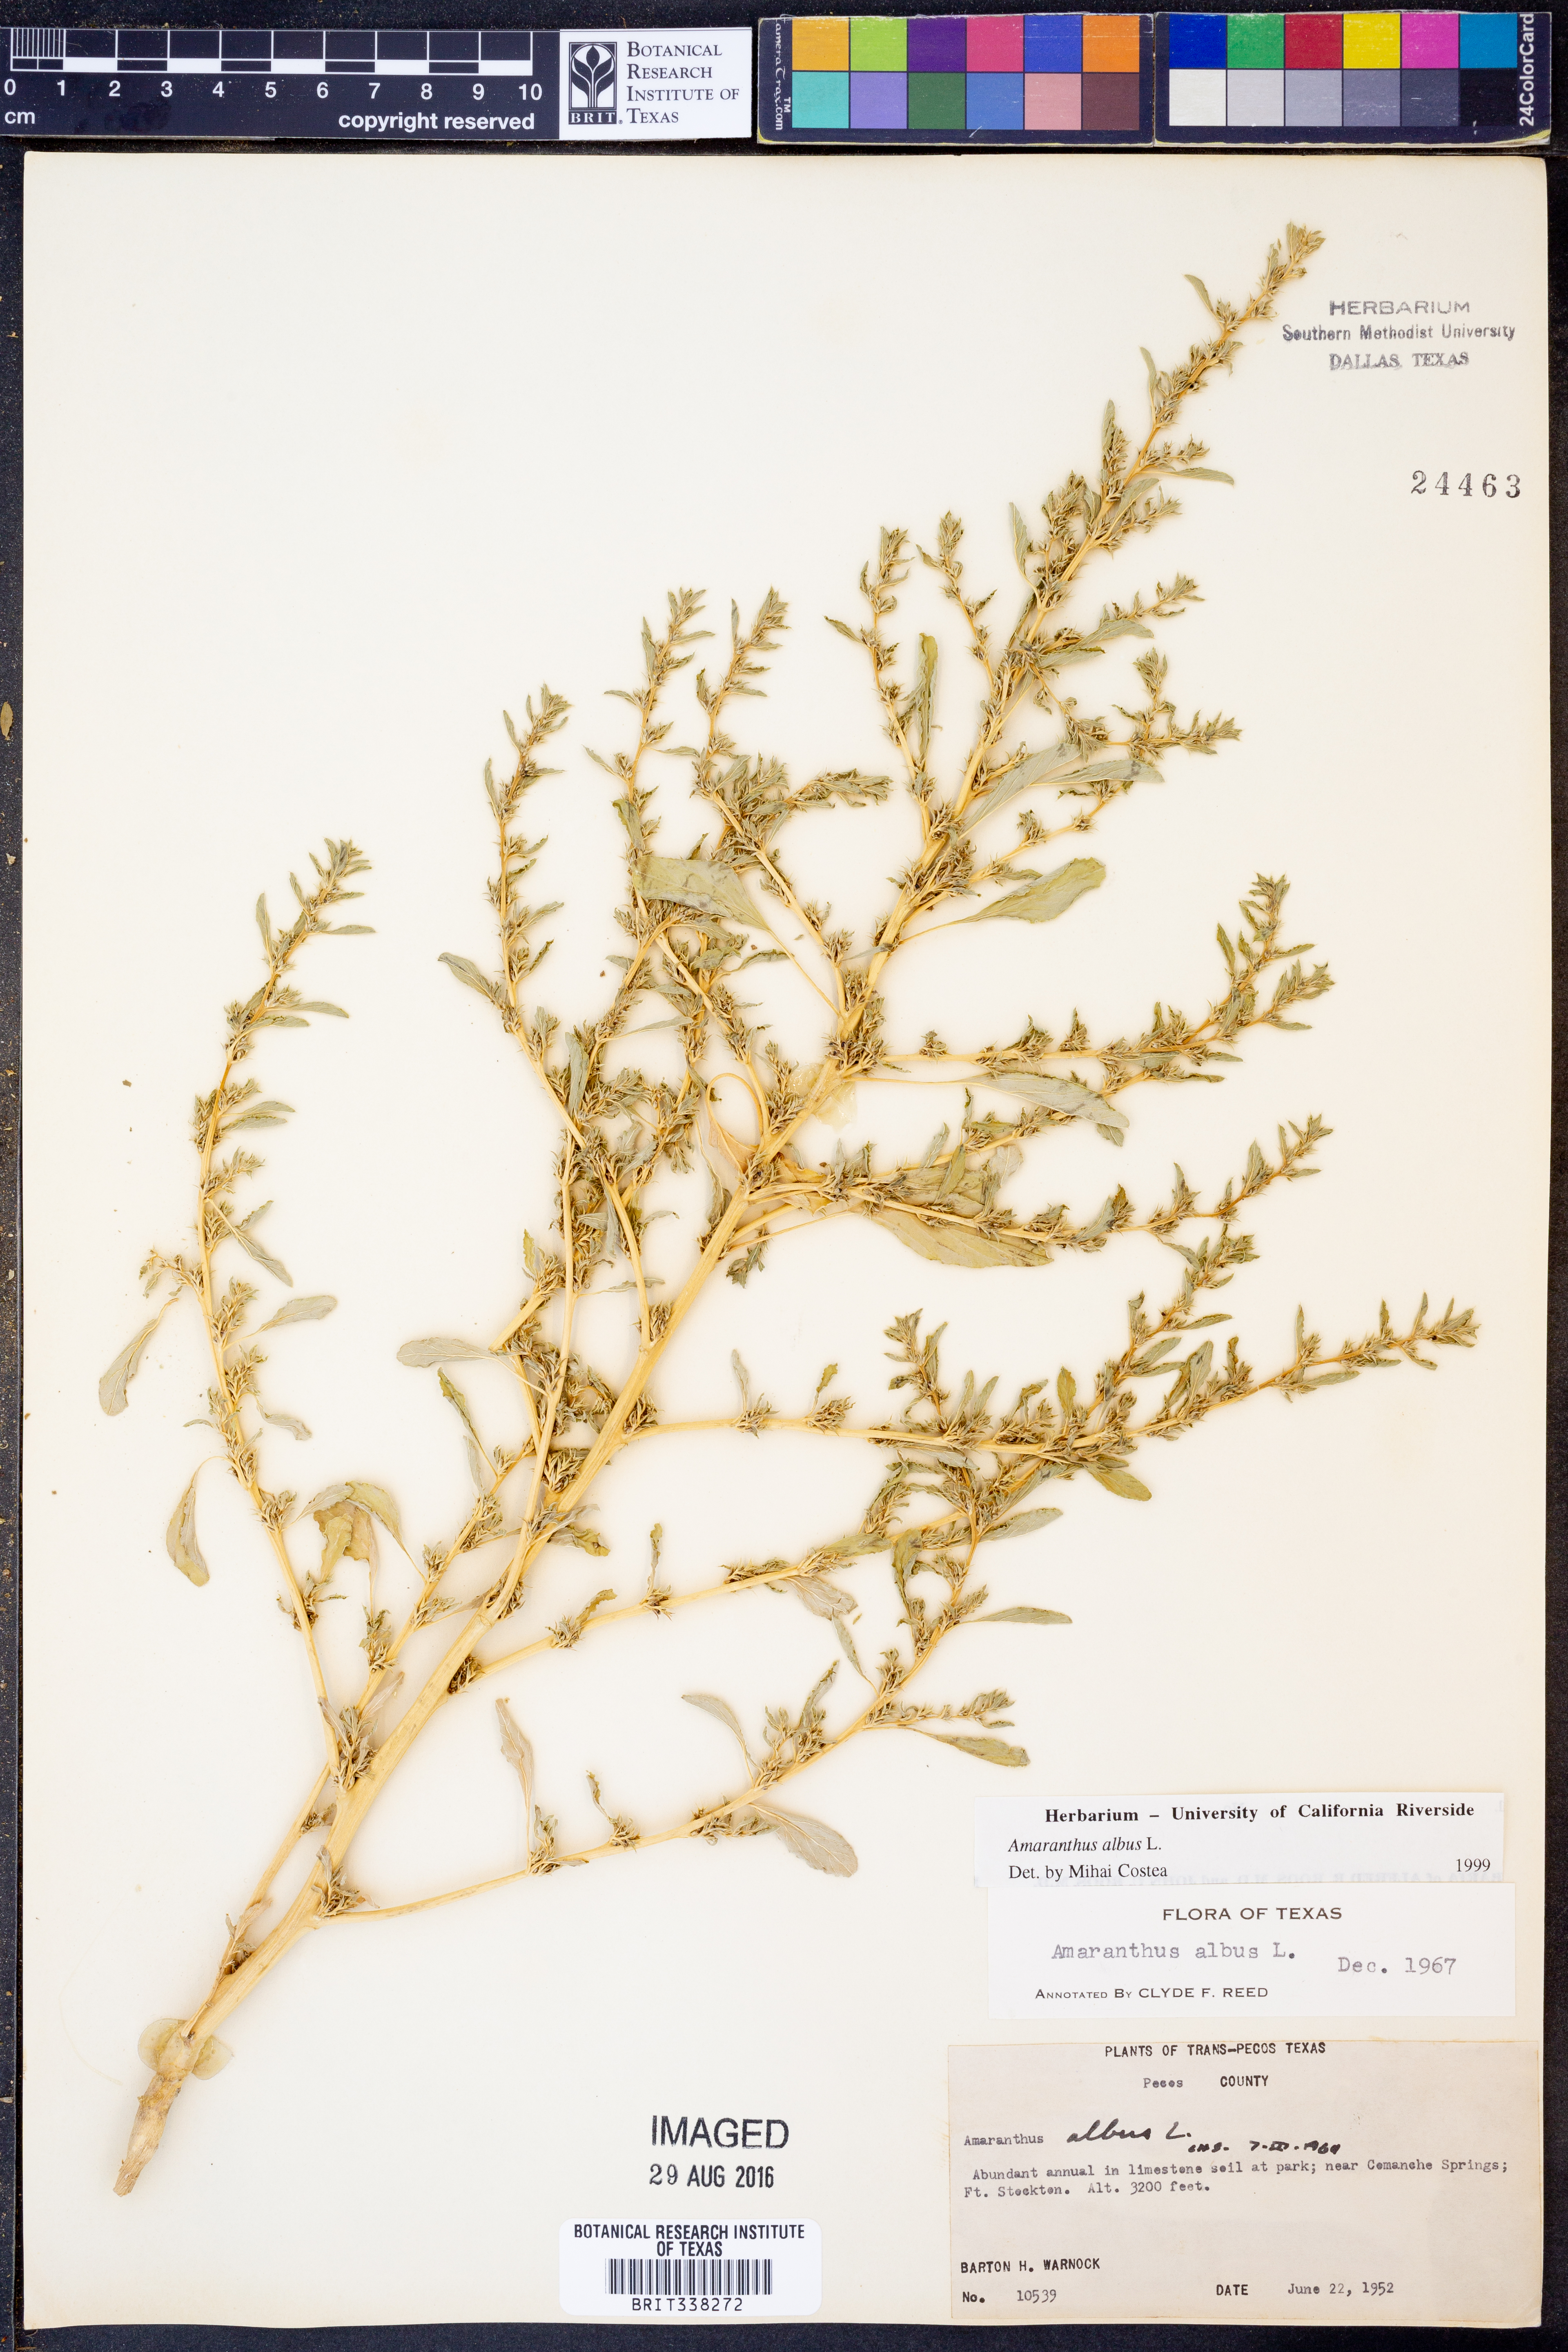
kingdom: Plantae
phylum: Tracheophyta
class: Magnoliopsida
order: Caryophyllales
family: Amaranthaceae
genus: Amaranthus
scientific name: Amaranthus albus
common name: White pigweed
